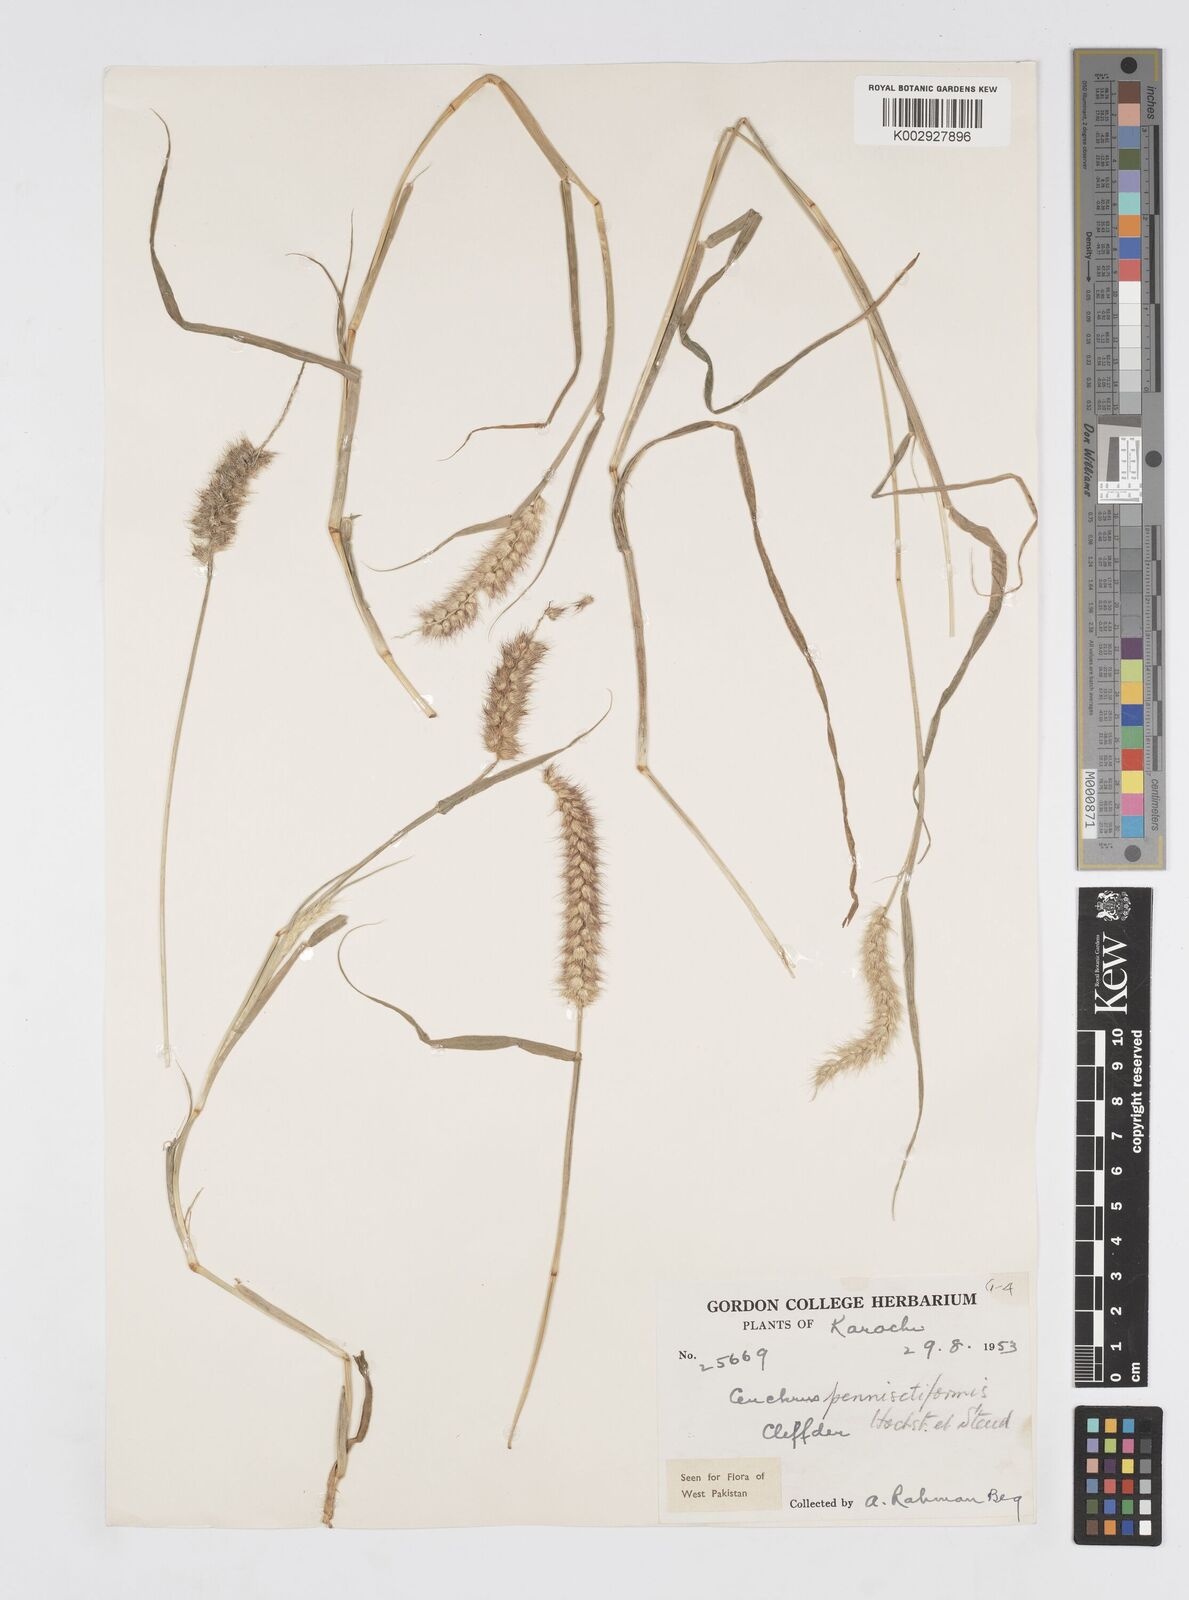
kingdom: Plantae
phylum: Tracheophyta
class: Liliopsida
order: Poales
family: Poaceae
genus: Cenchrus
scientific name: Cenchrus pennisetiformis
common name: Cloncurry
